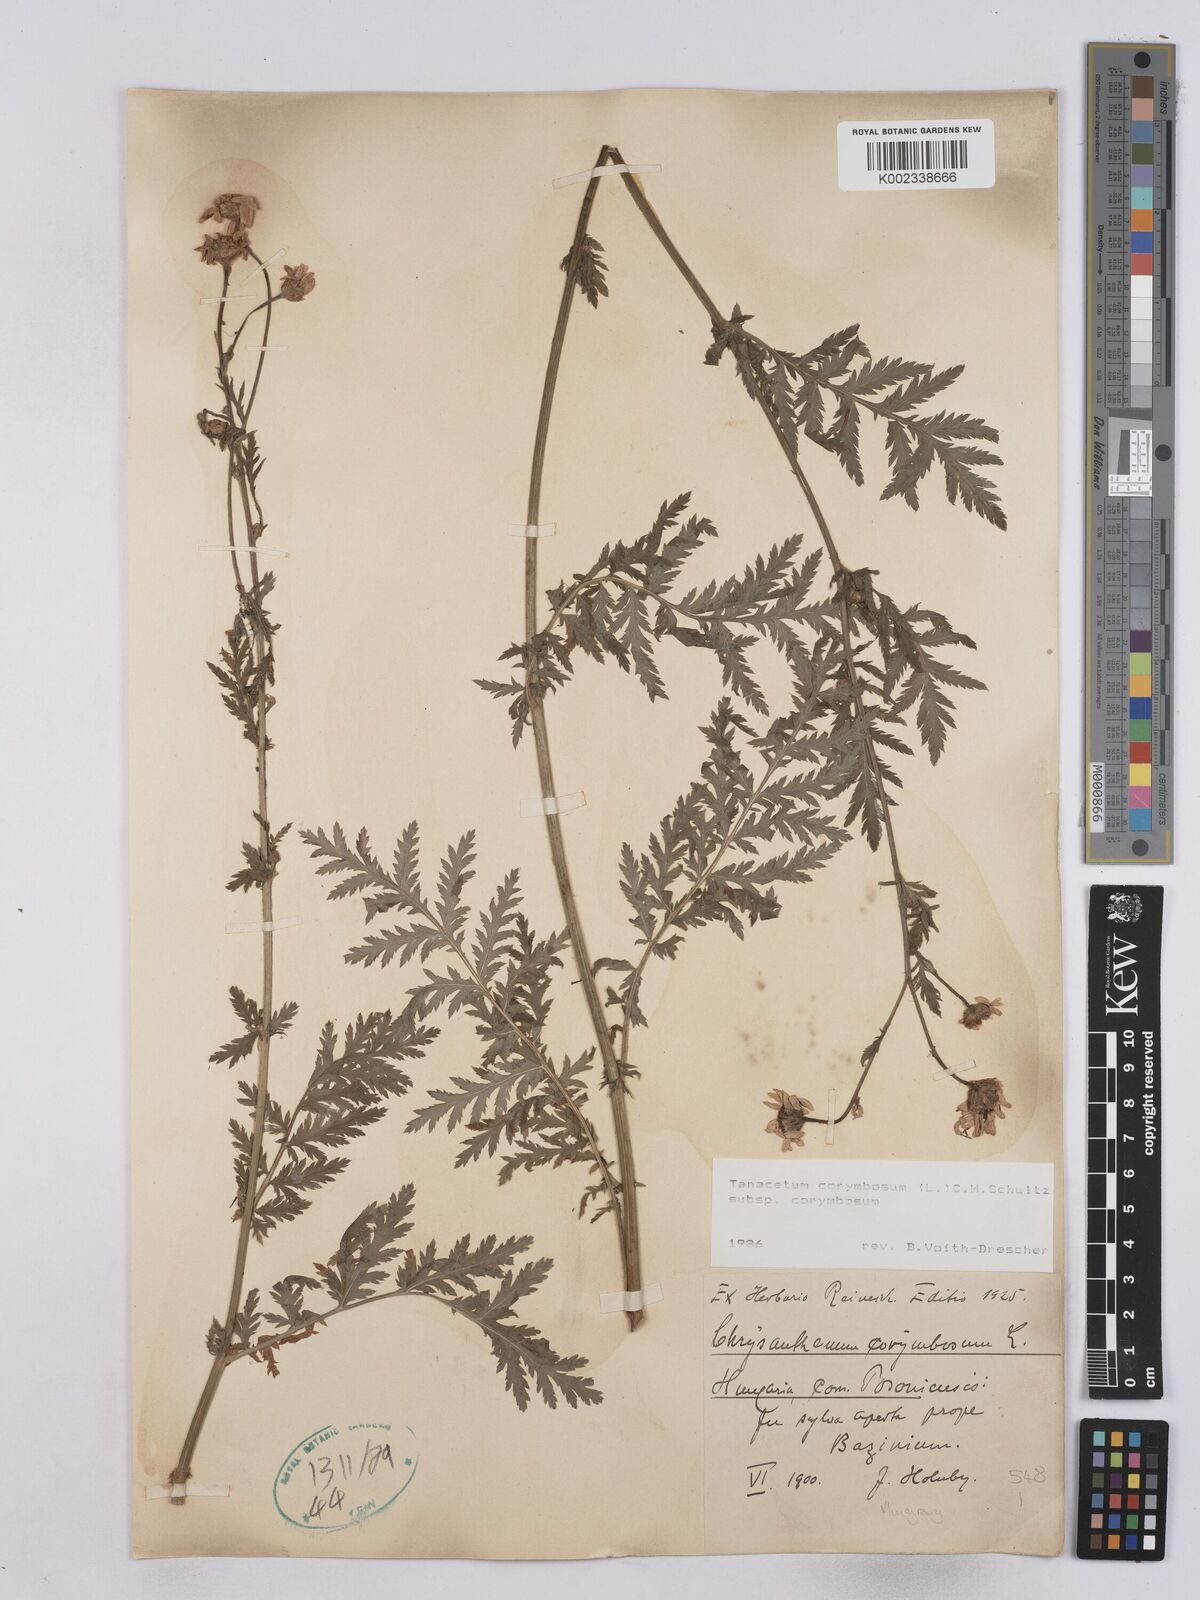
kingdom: Plantae
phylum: Tracheophyta
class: Magnoliopsida
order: Asterales
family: Asteraceae
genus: Tanacetum
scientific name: Tanacetum corymbosum
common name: Scentless feverfew
